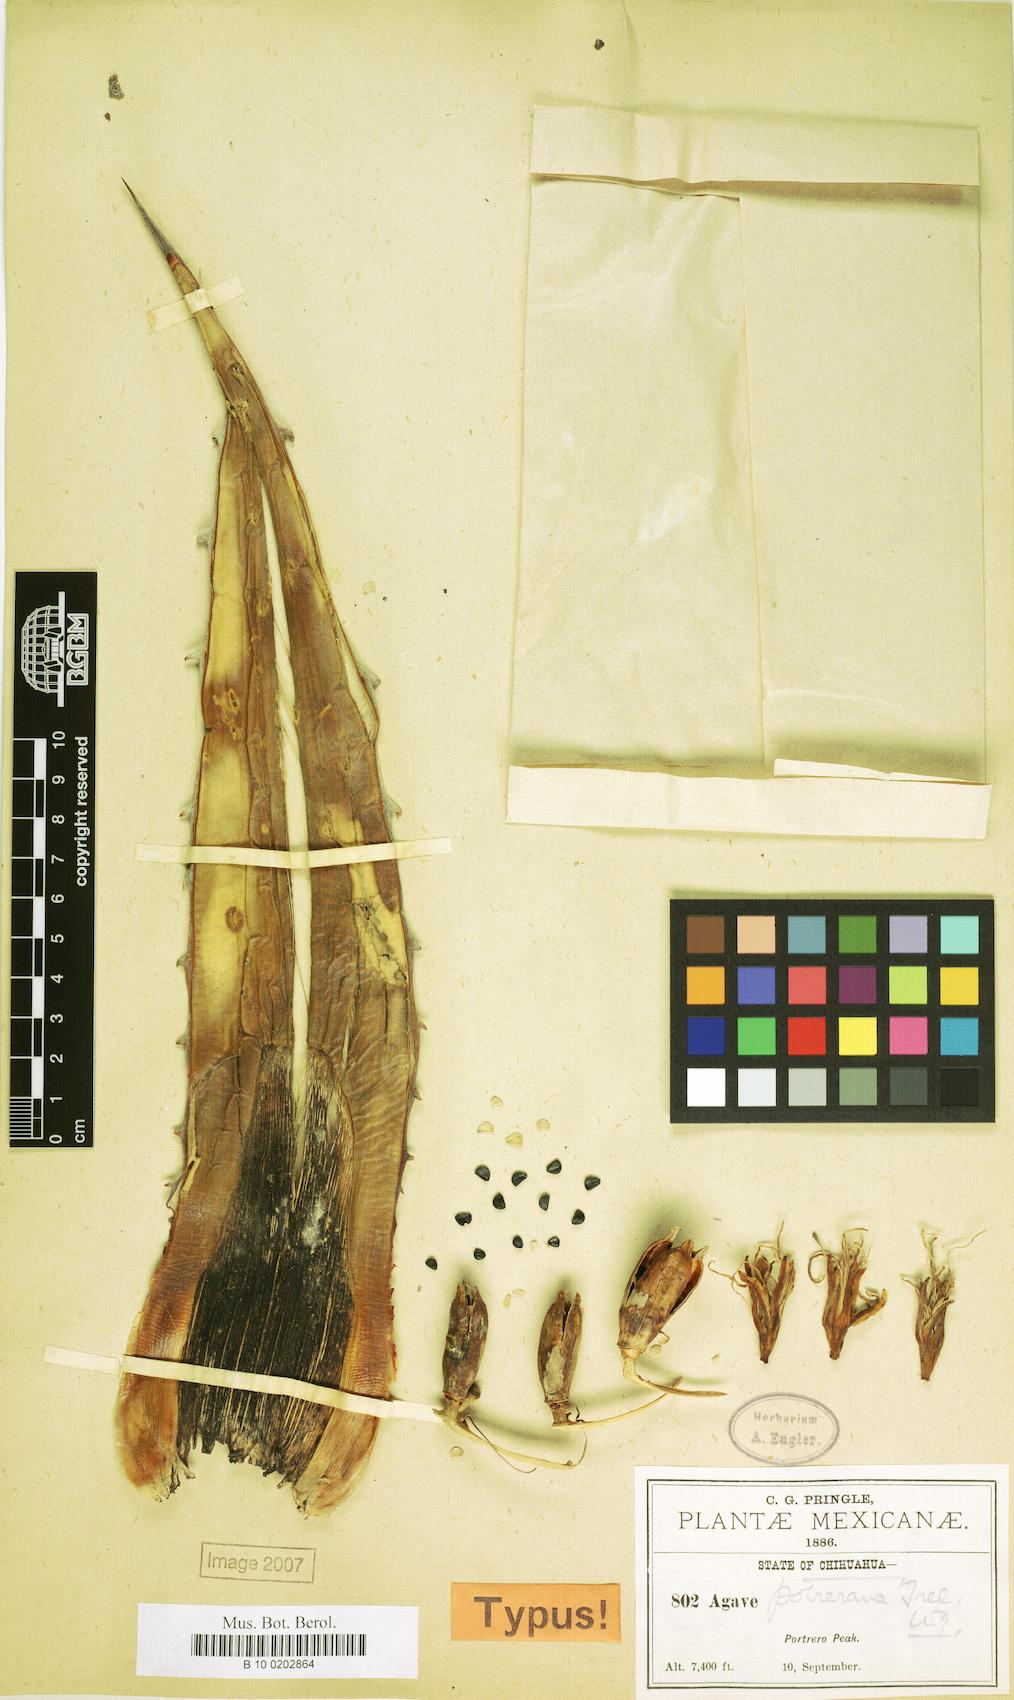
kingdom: Plantae
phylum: Tracheophyta
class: Liliopsida
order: Asparagales
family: Asparagaceae
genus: Agave
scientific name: Agave potrerana
